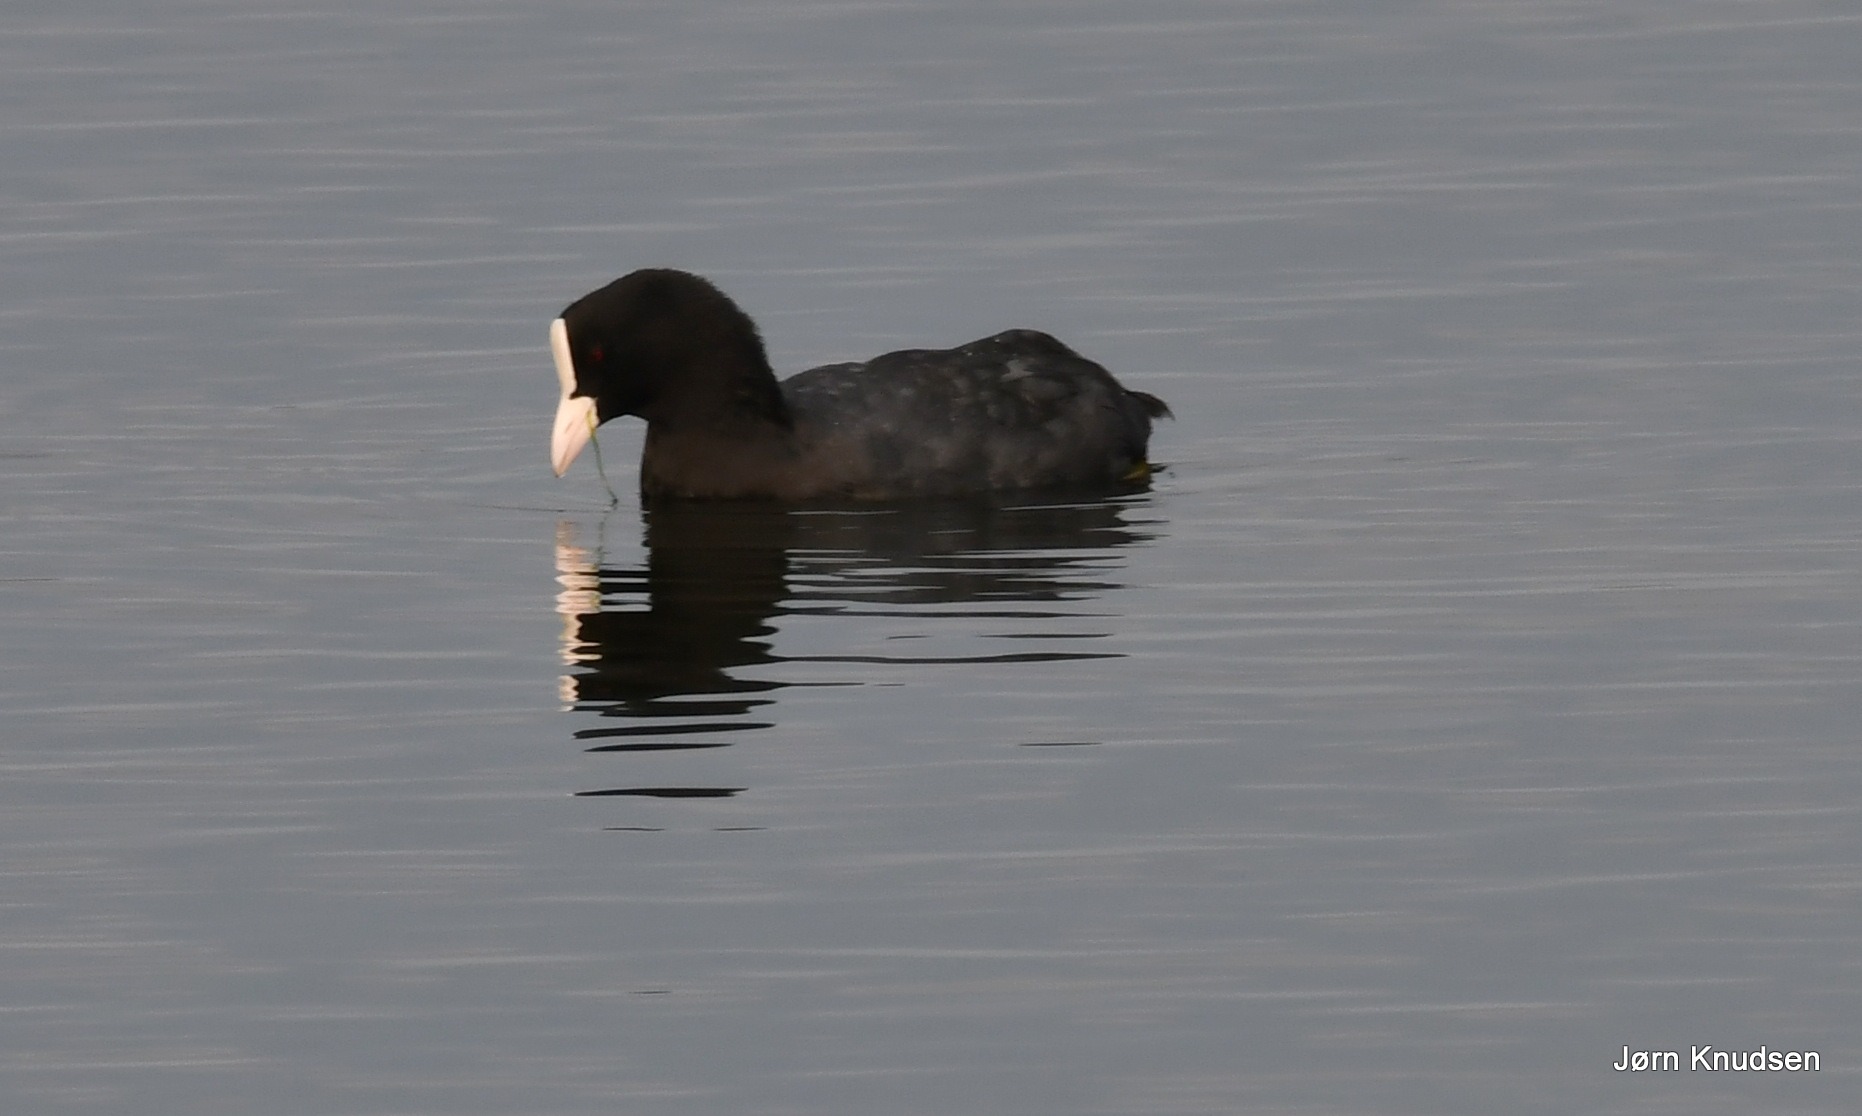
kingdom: Animalia
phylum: Chordata
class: Aves
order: Gruiformes
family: Rallidae
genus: Fulica
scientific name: Fulica atra
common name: Blishøne
